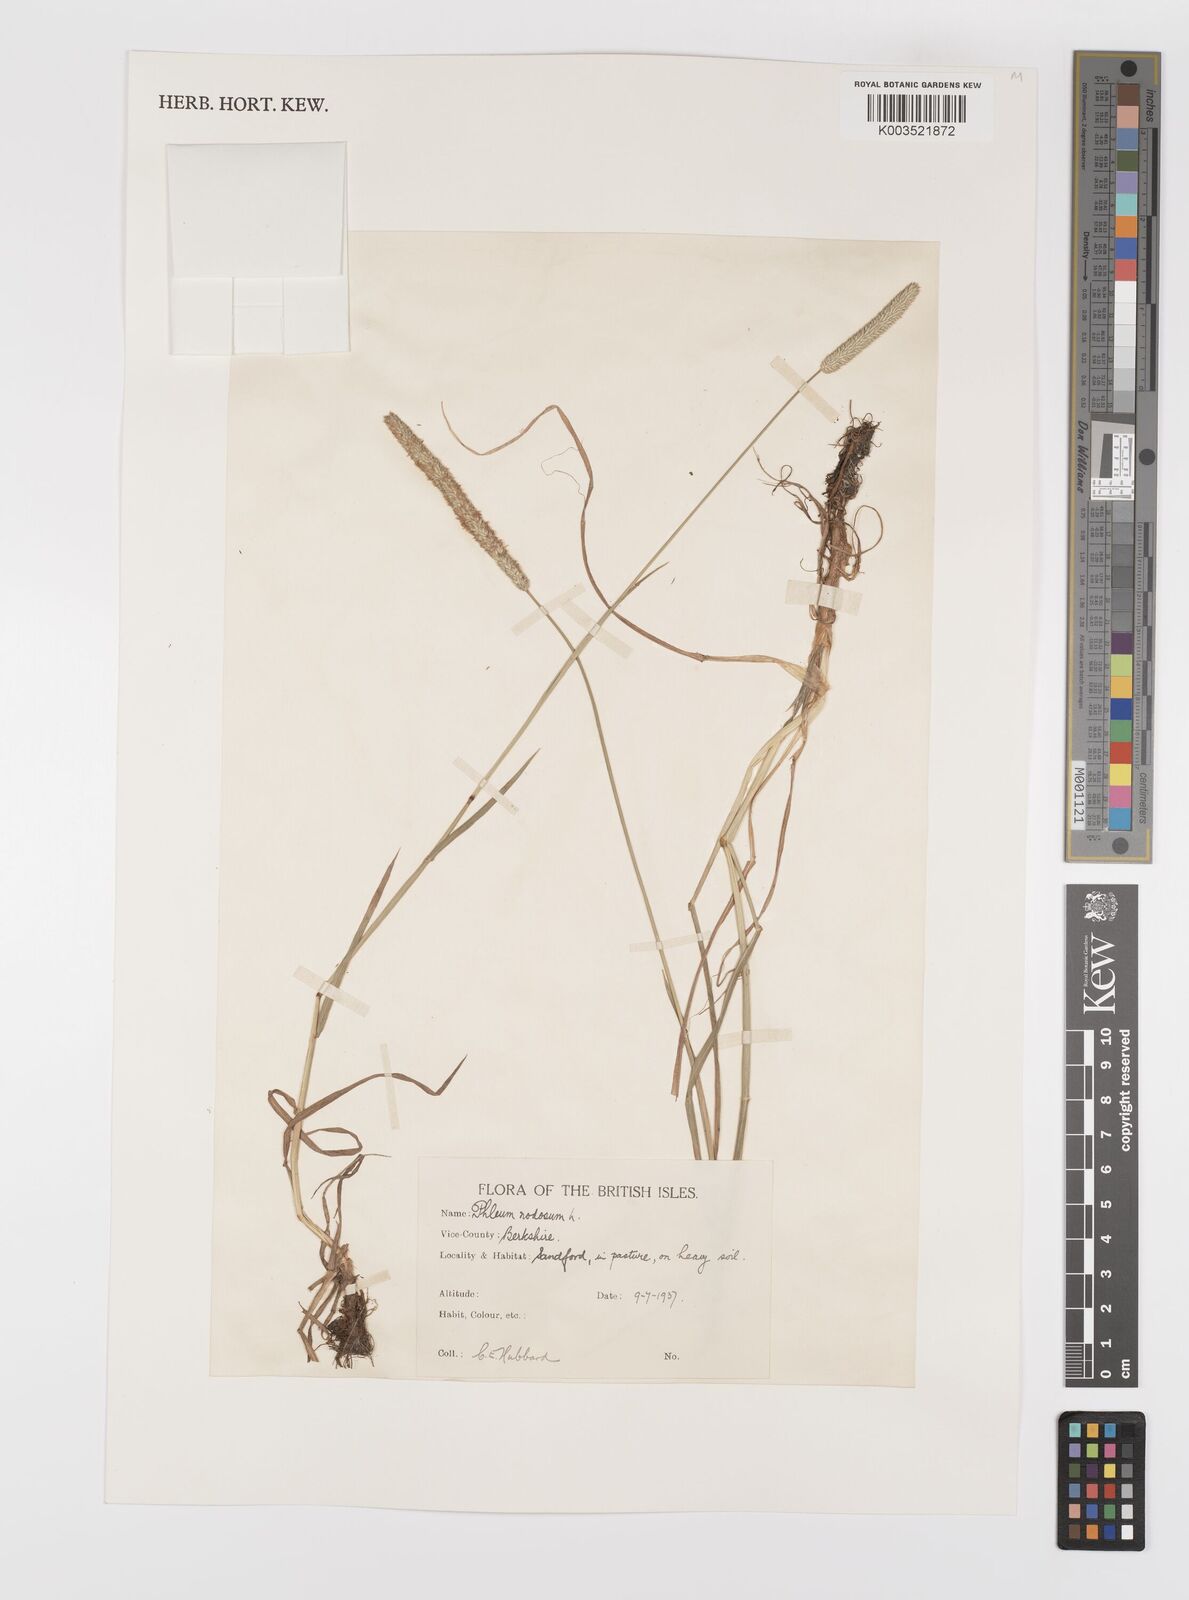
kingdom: Plantae
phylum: Tracheophyta
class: Liliopsida
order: Poales
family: Poaceae
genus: Phleum
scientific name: Phleum bertolonii
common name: Smaller cat's-tail
